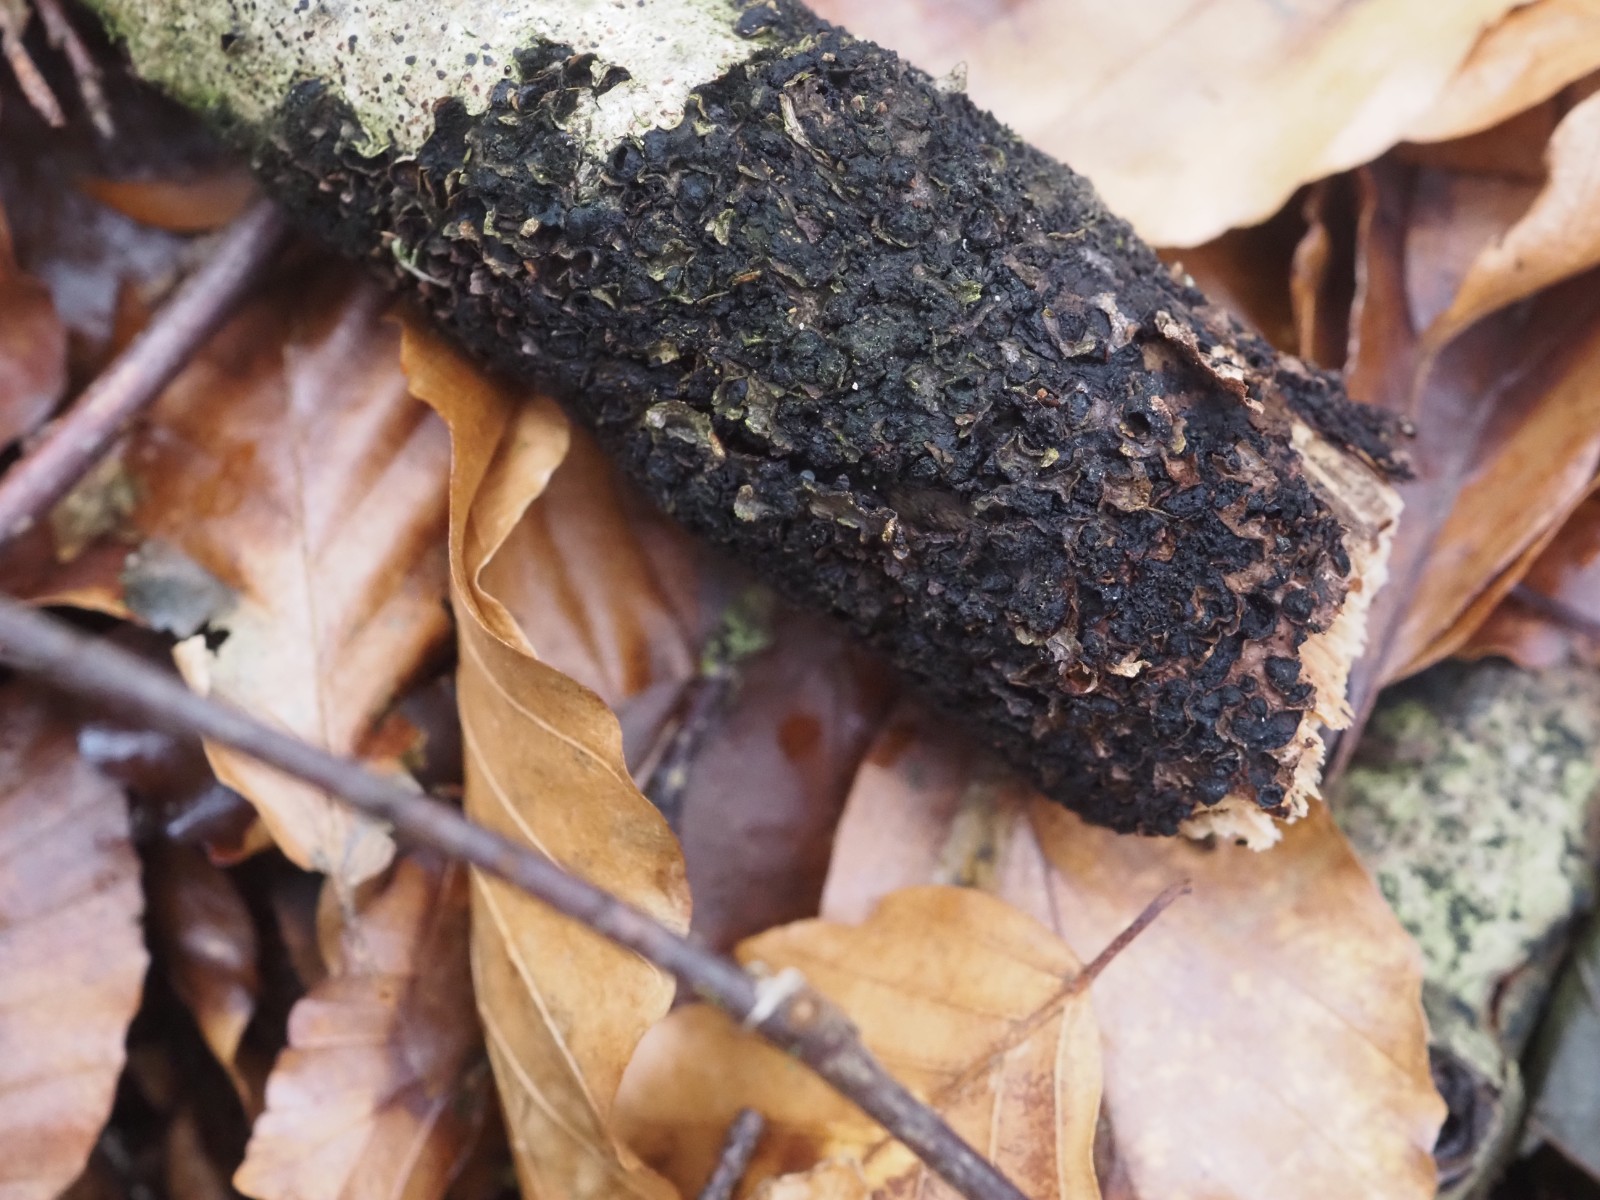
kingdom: Fungi
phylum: Ascomycota
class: Sordariomycetes
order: Xylariales
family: Melogrammataceae
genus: Melogramma
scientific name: Melogramma spiniferum
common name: bøgefod-kulhals
